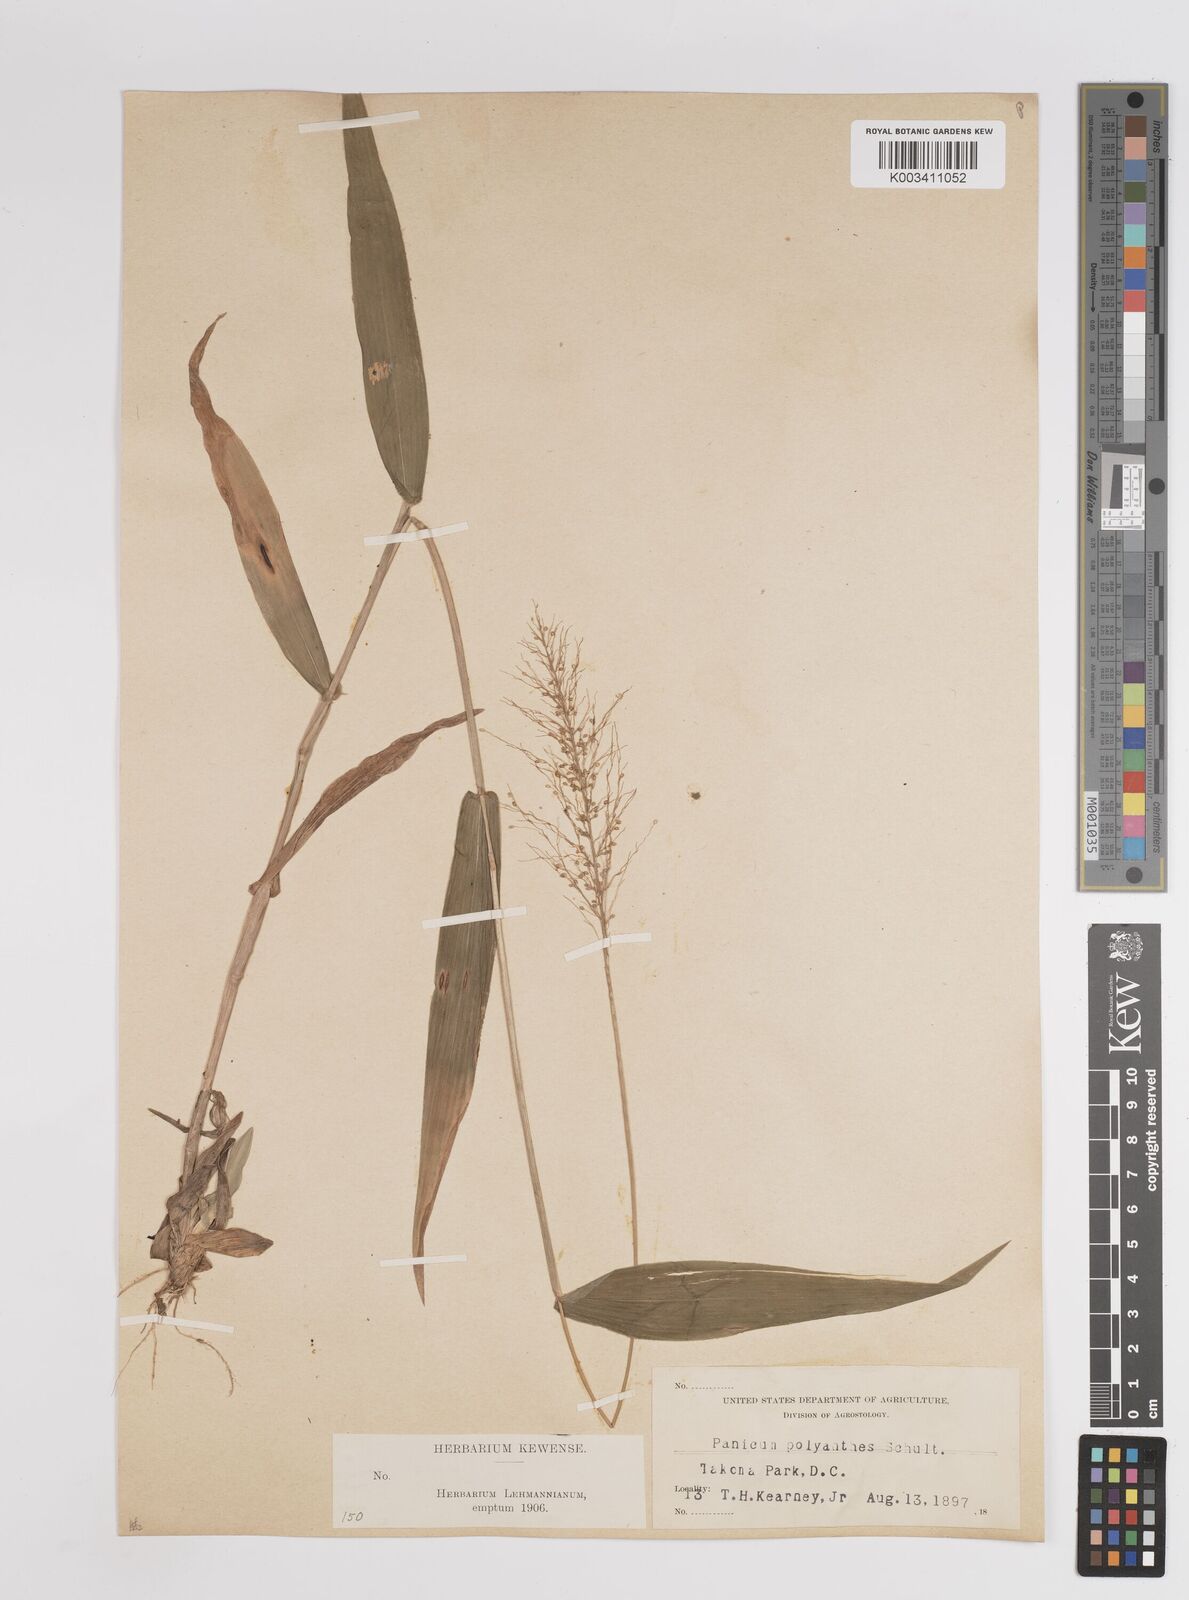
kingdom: Plantae
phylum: Tracheophyta
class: Liliopsida
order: Poales
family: Poaceae
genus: Dichanthelium
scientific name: Dichanthelium polyanthes
